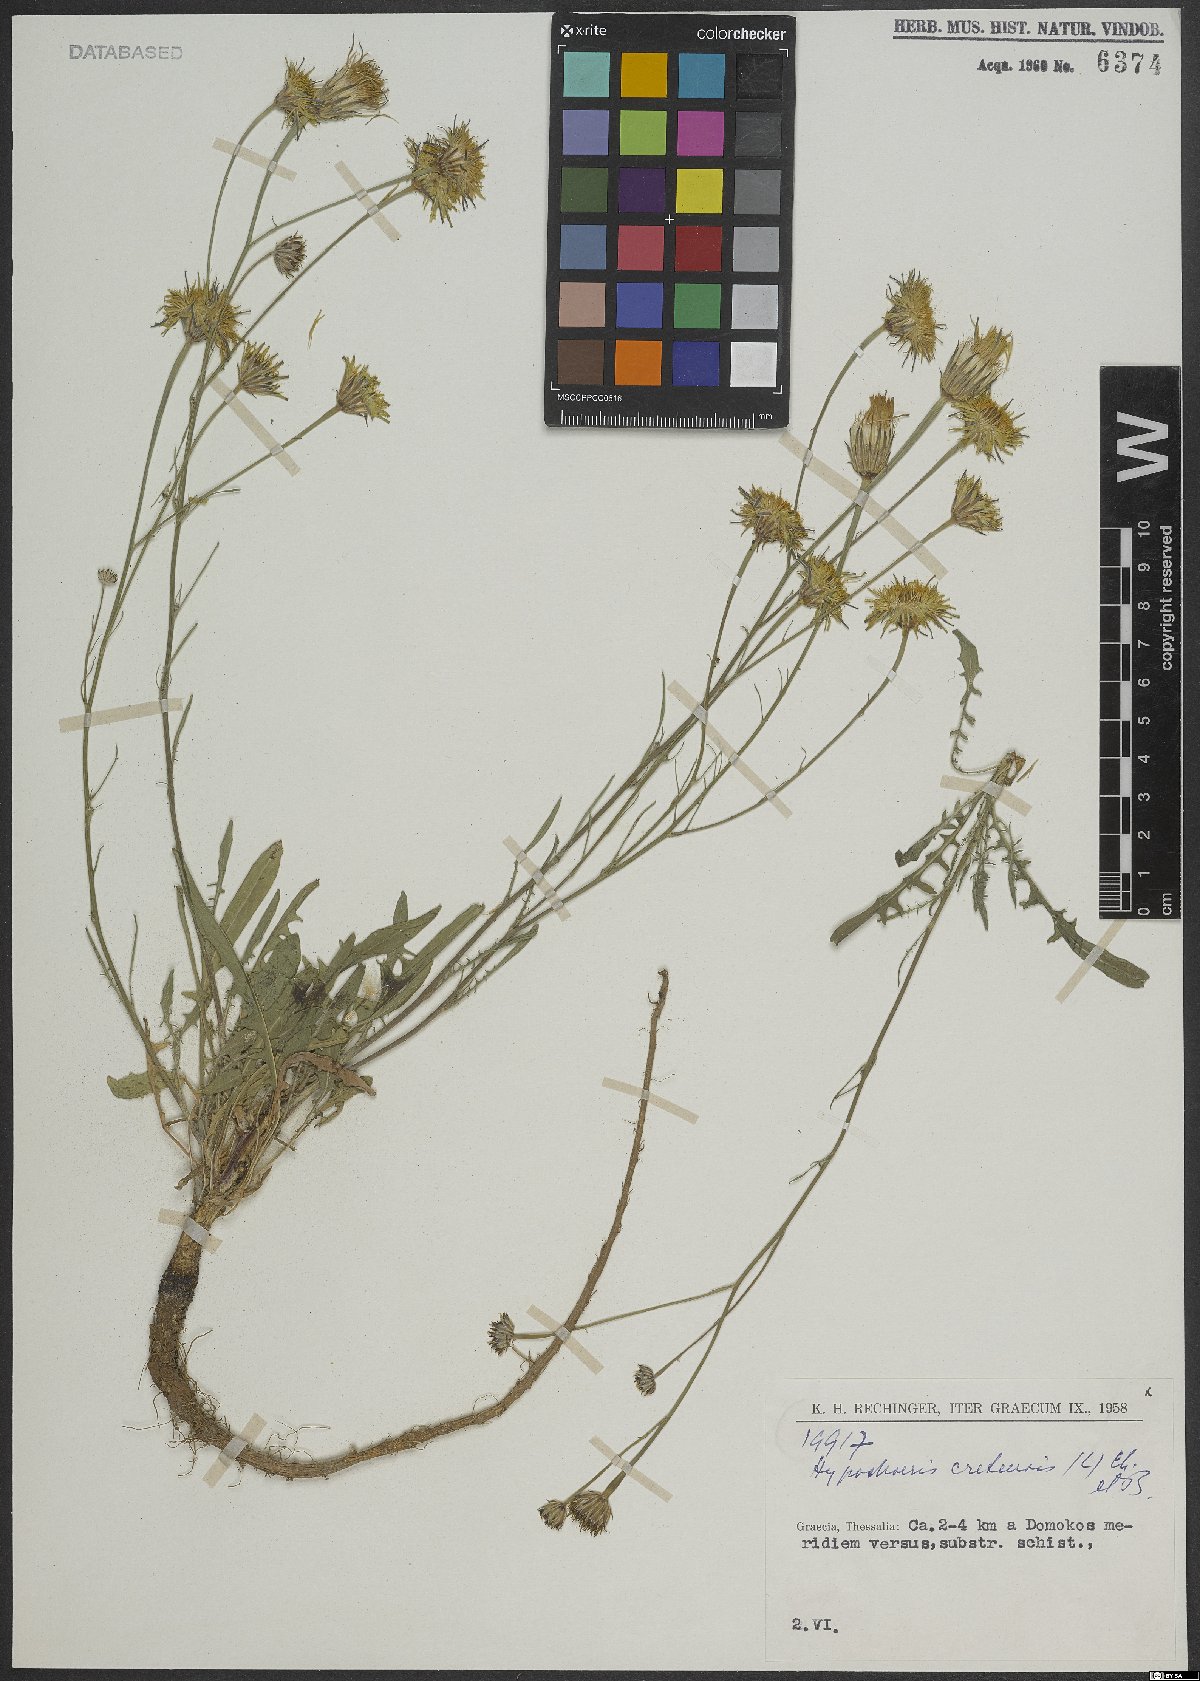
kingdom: Plantae
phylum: Tracheophyta
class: Magnoliopsida
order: Asterales
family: Asteraceae
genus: Hypochaeris
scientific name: Hypochaeris cretensis
